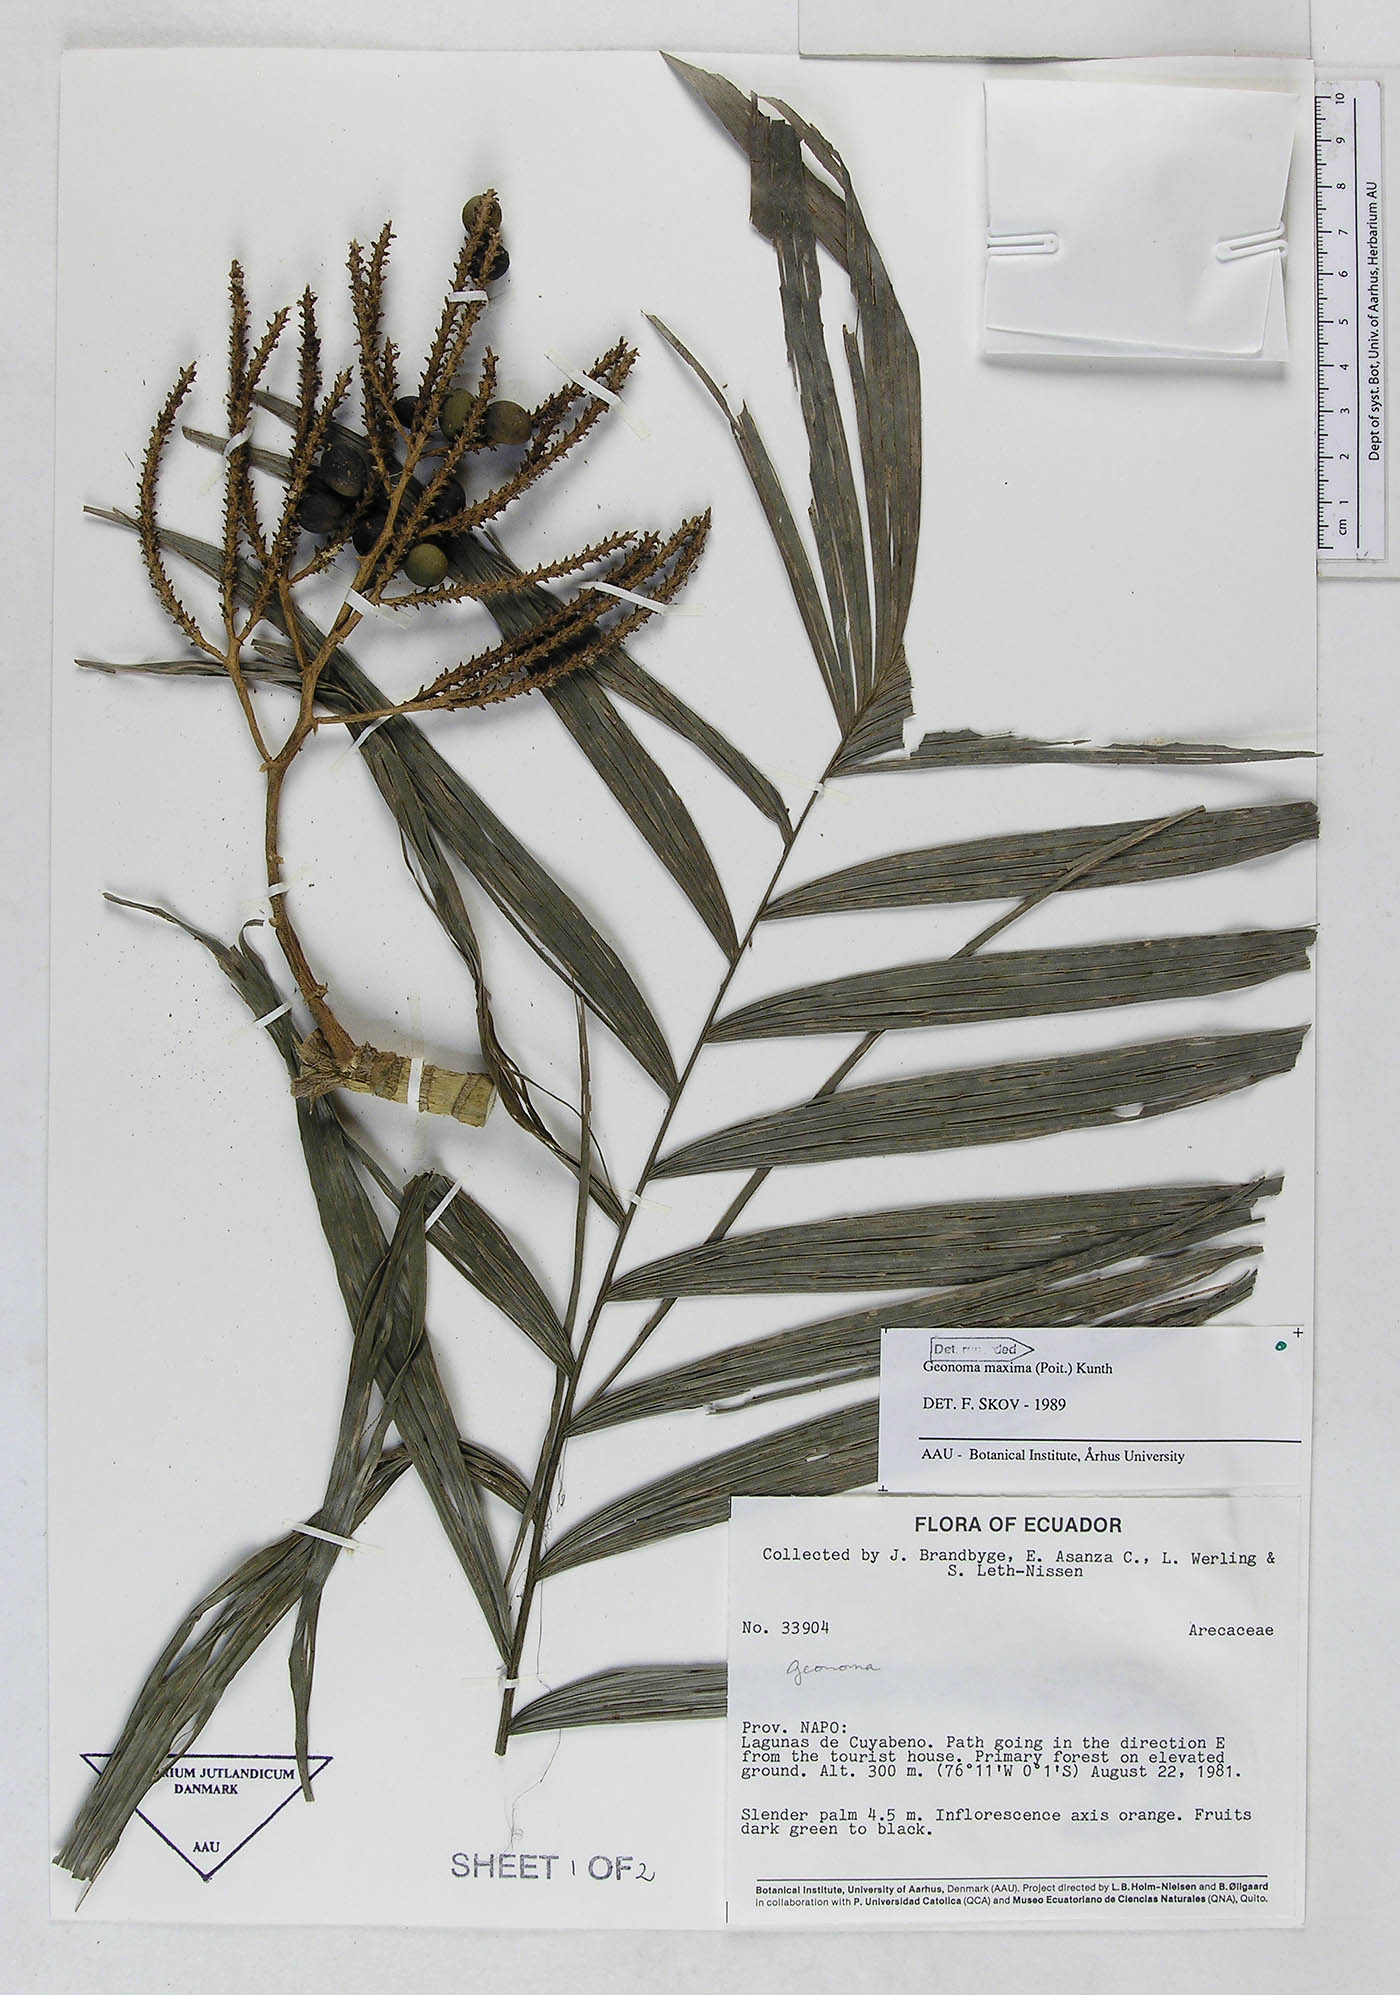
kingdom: Plantae
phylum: Tracheophyta
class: Liliopsida
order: Arecales
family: Arecaceae
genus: Geonoma
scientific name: Geonoma maxima
